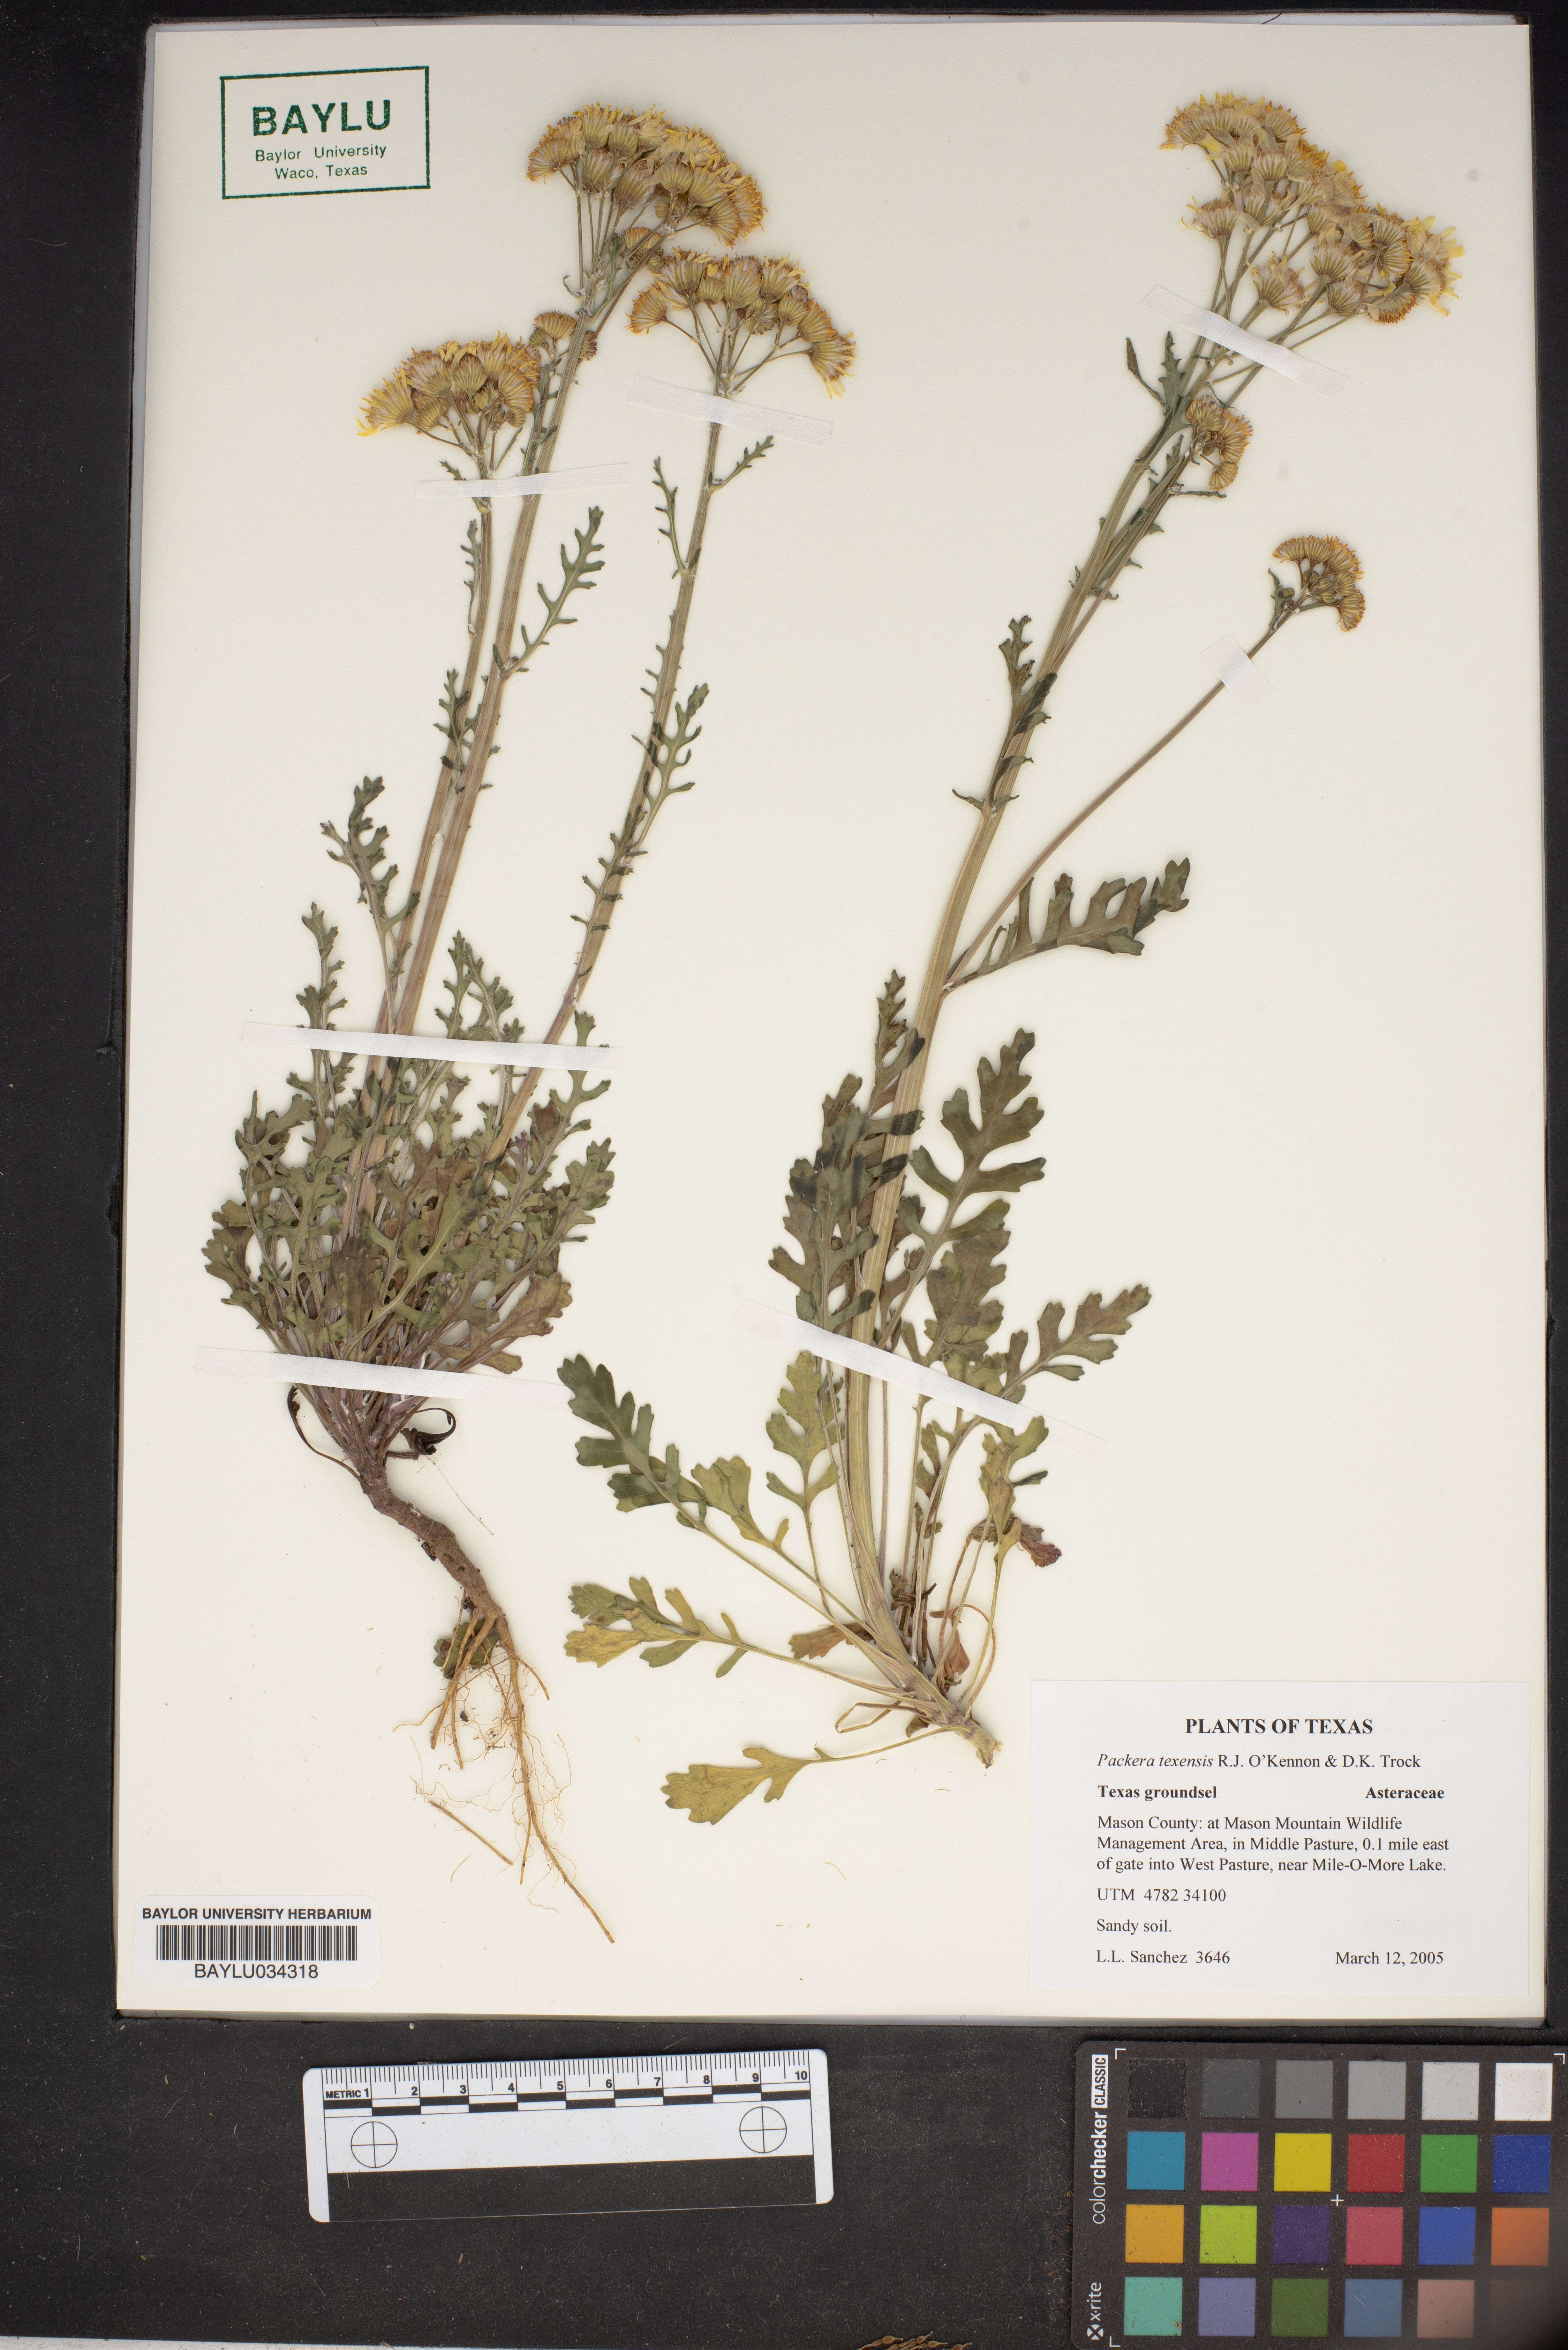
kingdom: Plantae
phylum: Tracheophyta
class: Magnoliopsida
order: Asterales
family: Asteraceae
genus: Packera
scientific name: Packera texensis
